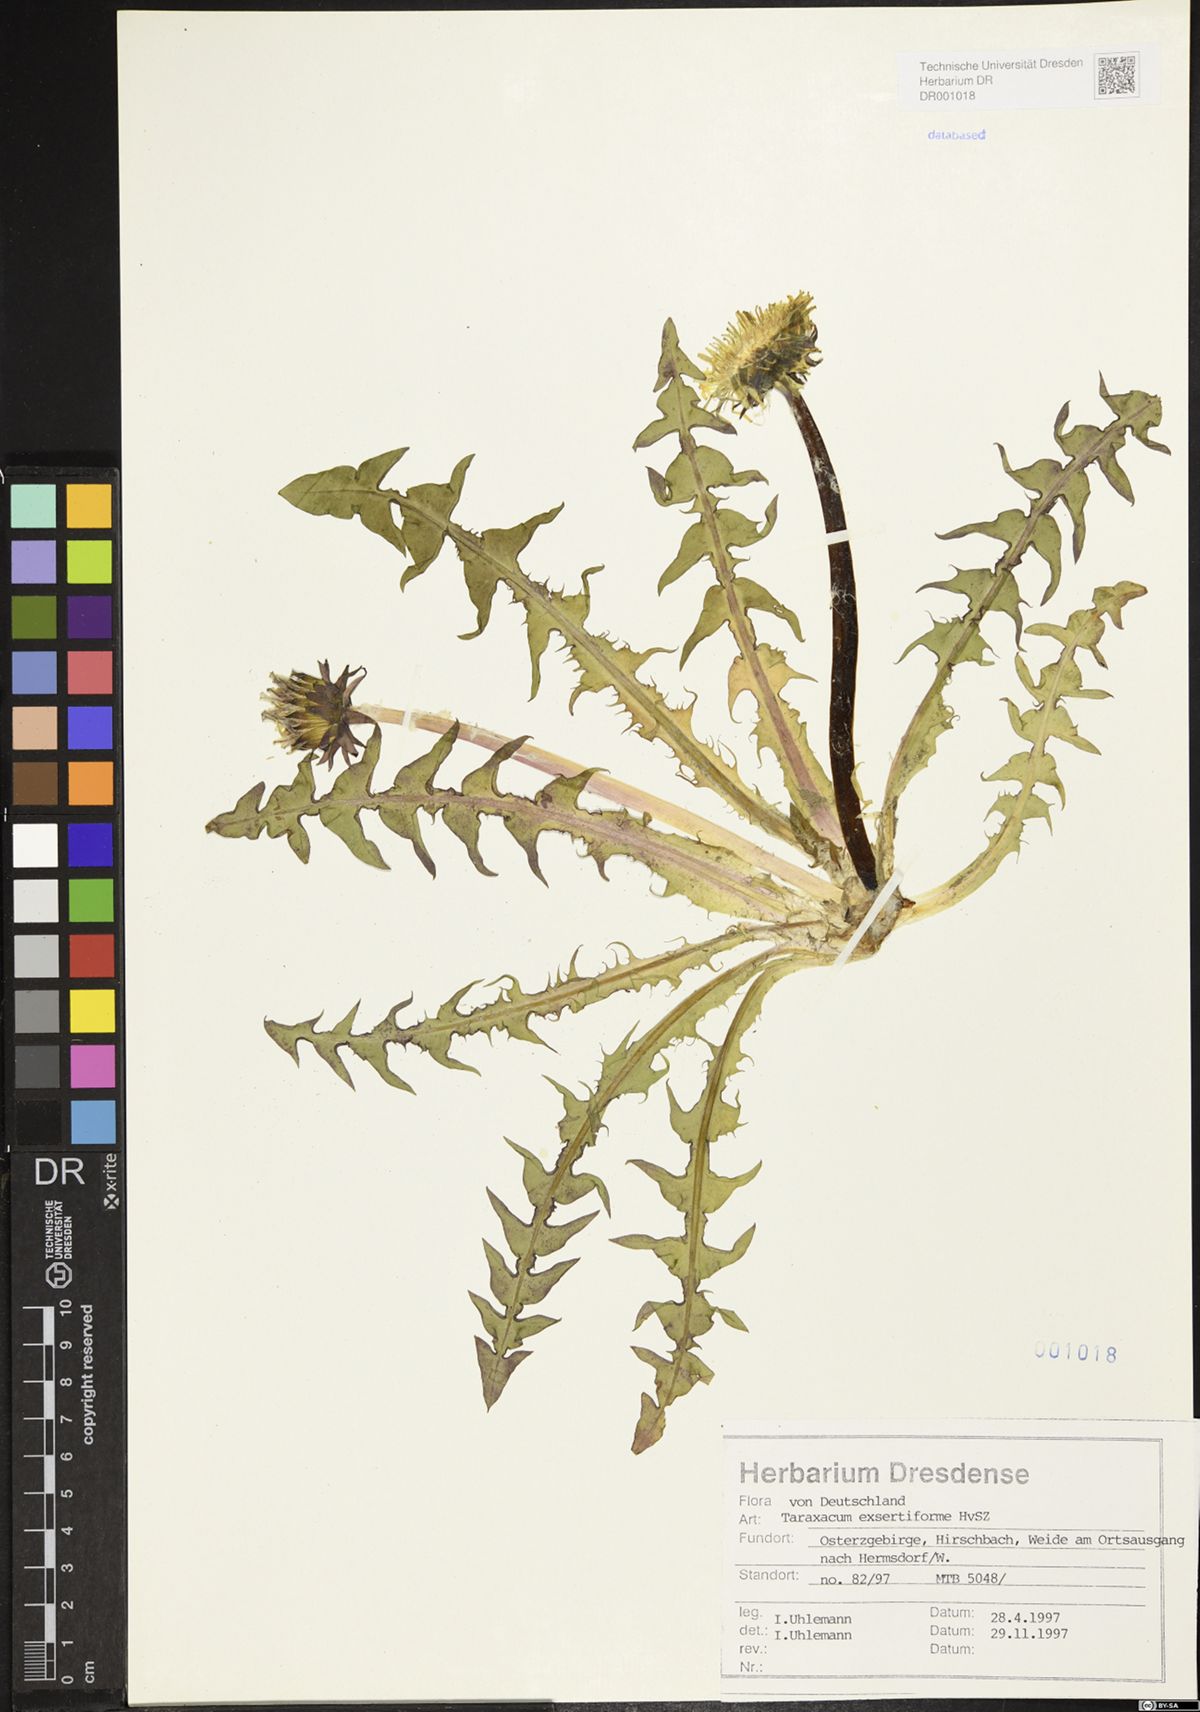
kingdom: Plantae
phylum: Tracheophyta
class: Magnoliopsida
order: Asterales
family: Asteraceae
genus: Taraxacum
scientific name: Taraxacum exsertiforme
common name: Erect-bracted dandelion
